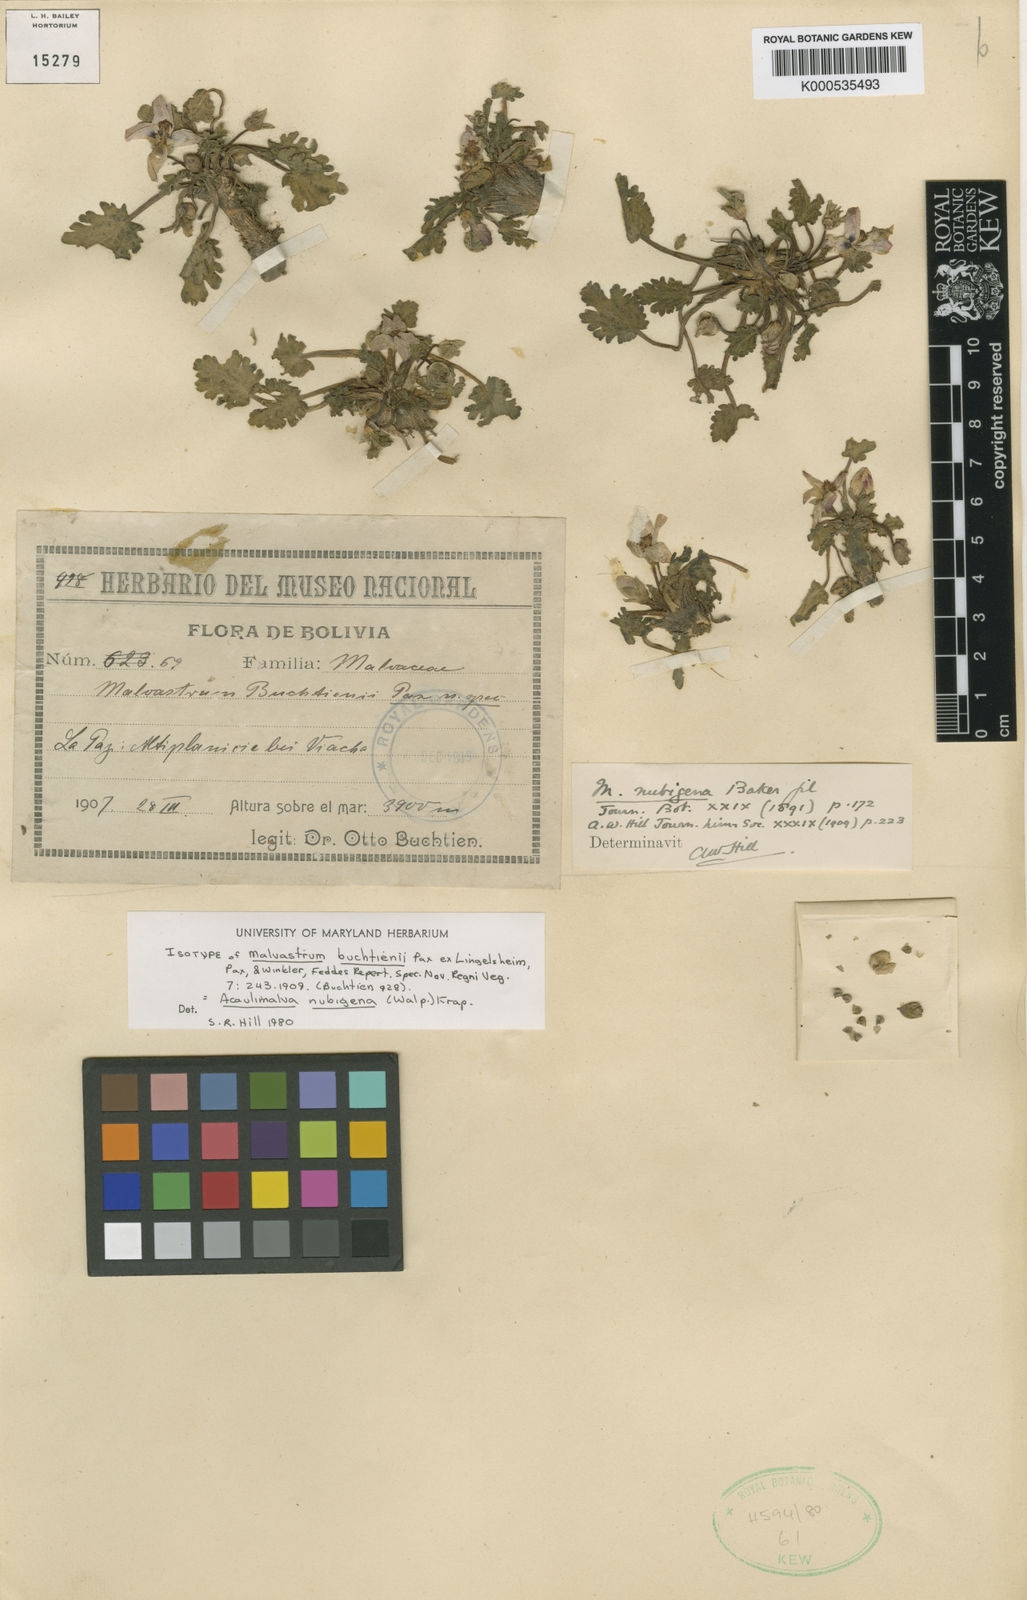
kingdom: Plantae
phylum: Tracheophyta
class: Magnoliopsida
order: Malvales
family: Malvaceae
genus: Acaulimalva
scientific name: Acaulimalva nubigena
